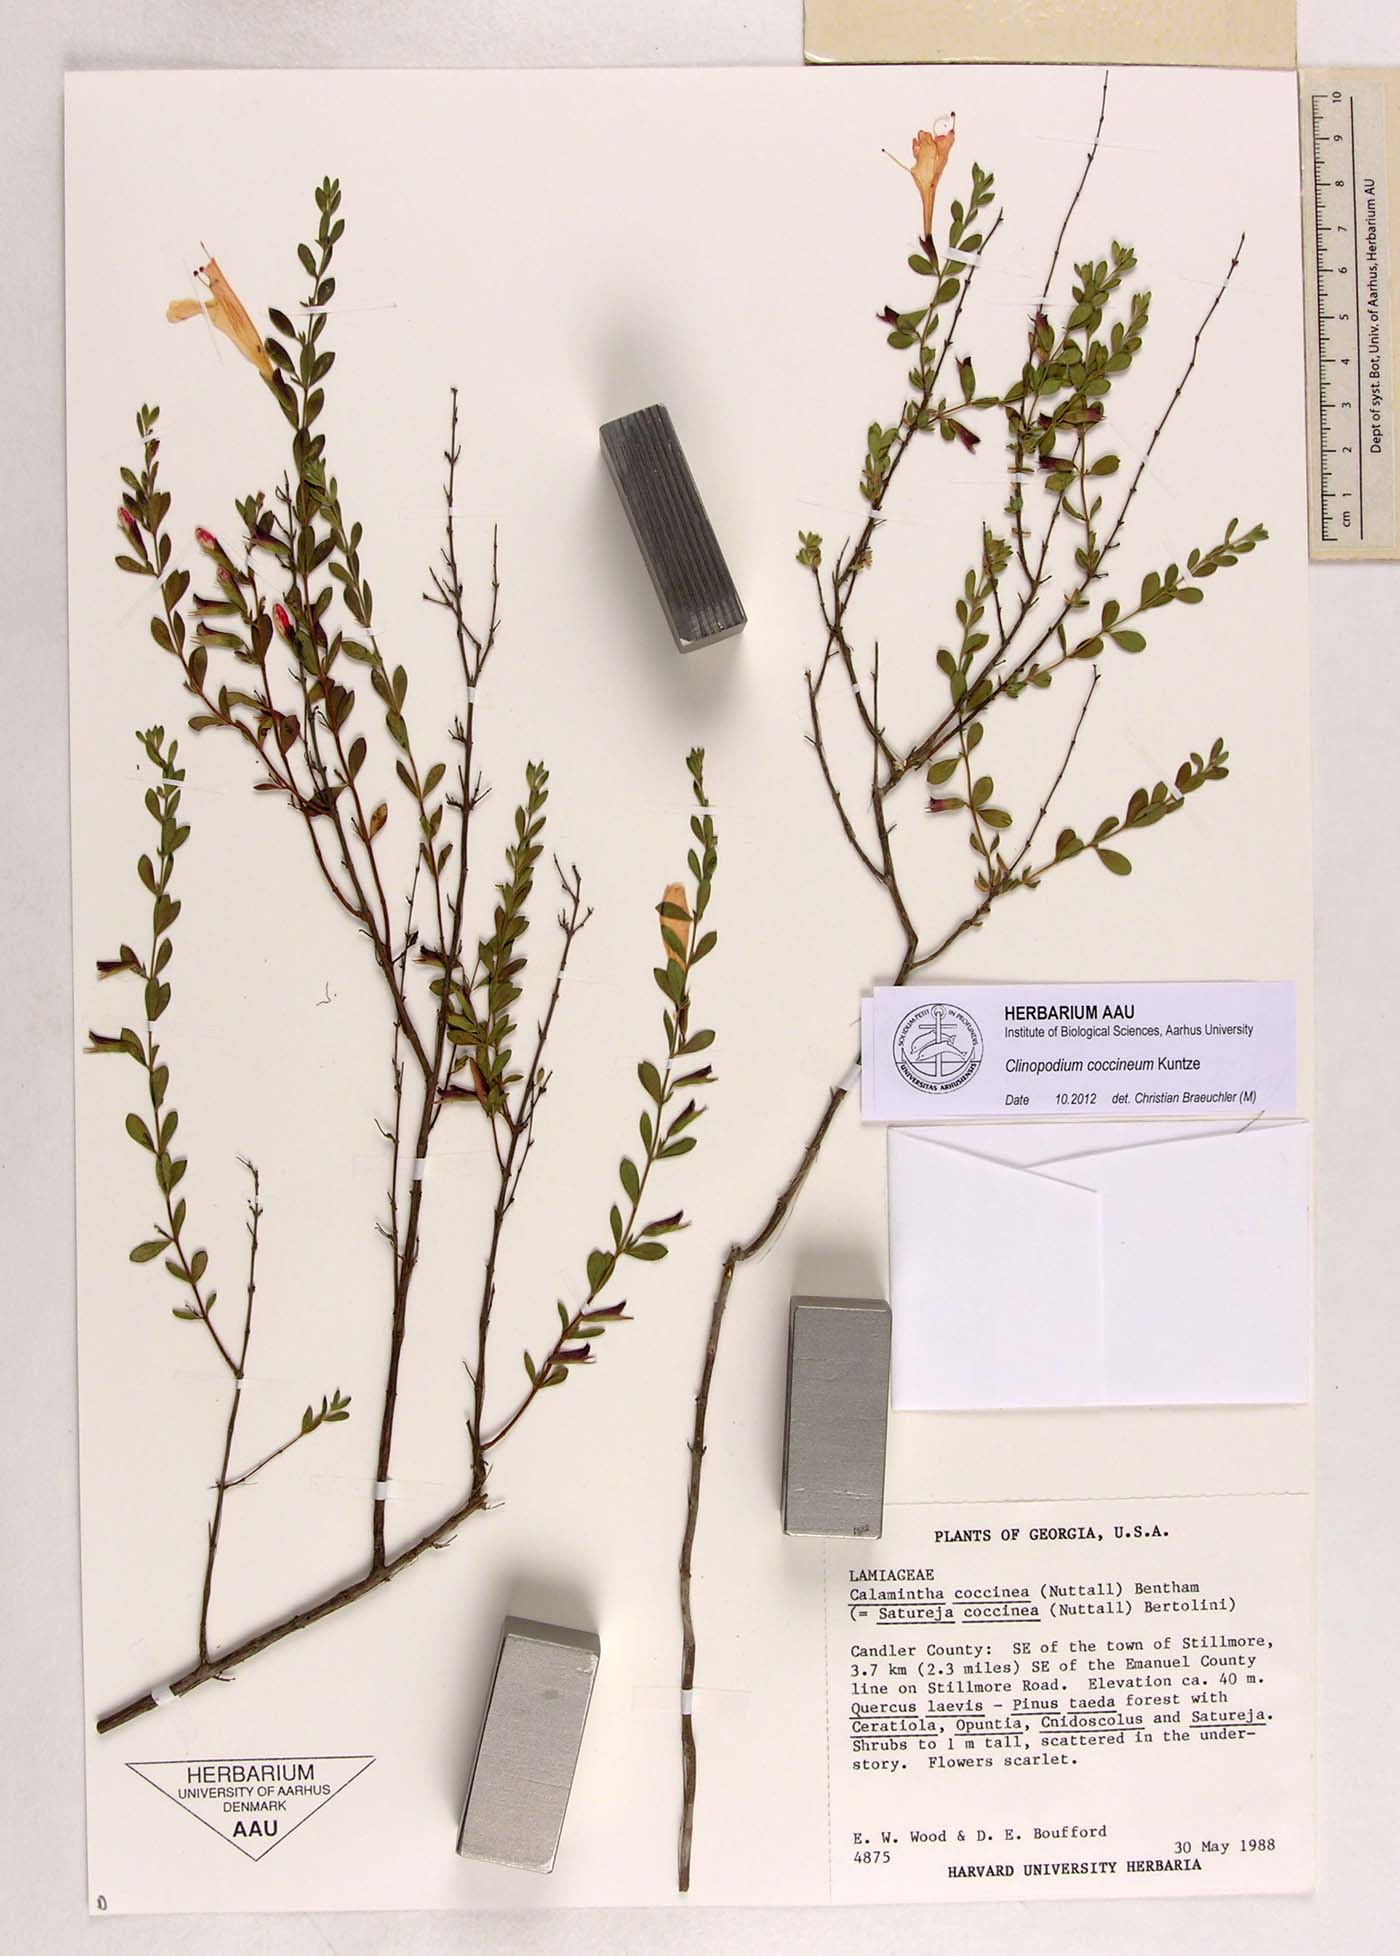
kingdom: Plantae
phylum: Tracheophyta
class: Magnoliopsida
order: Lamiales
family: Lamiaceae
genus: Clinopodium
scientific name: Clinopodium coccineum
